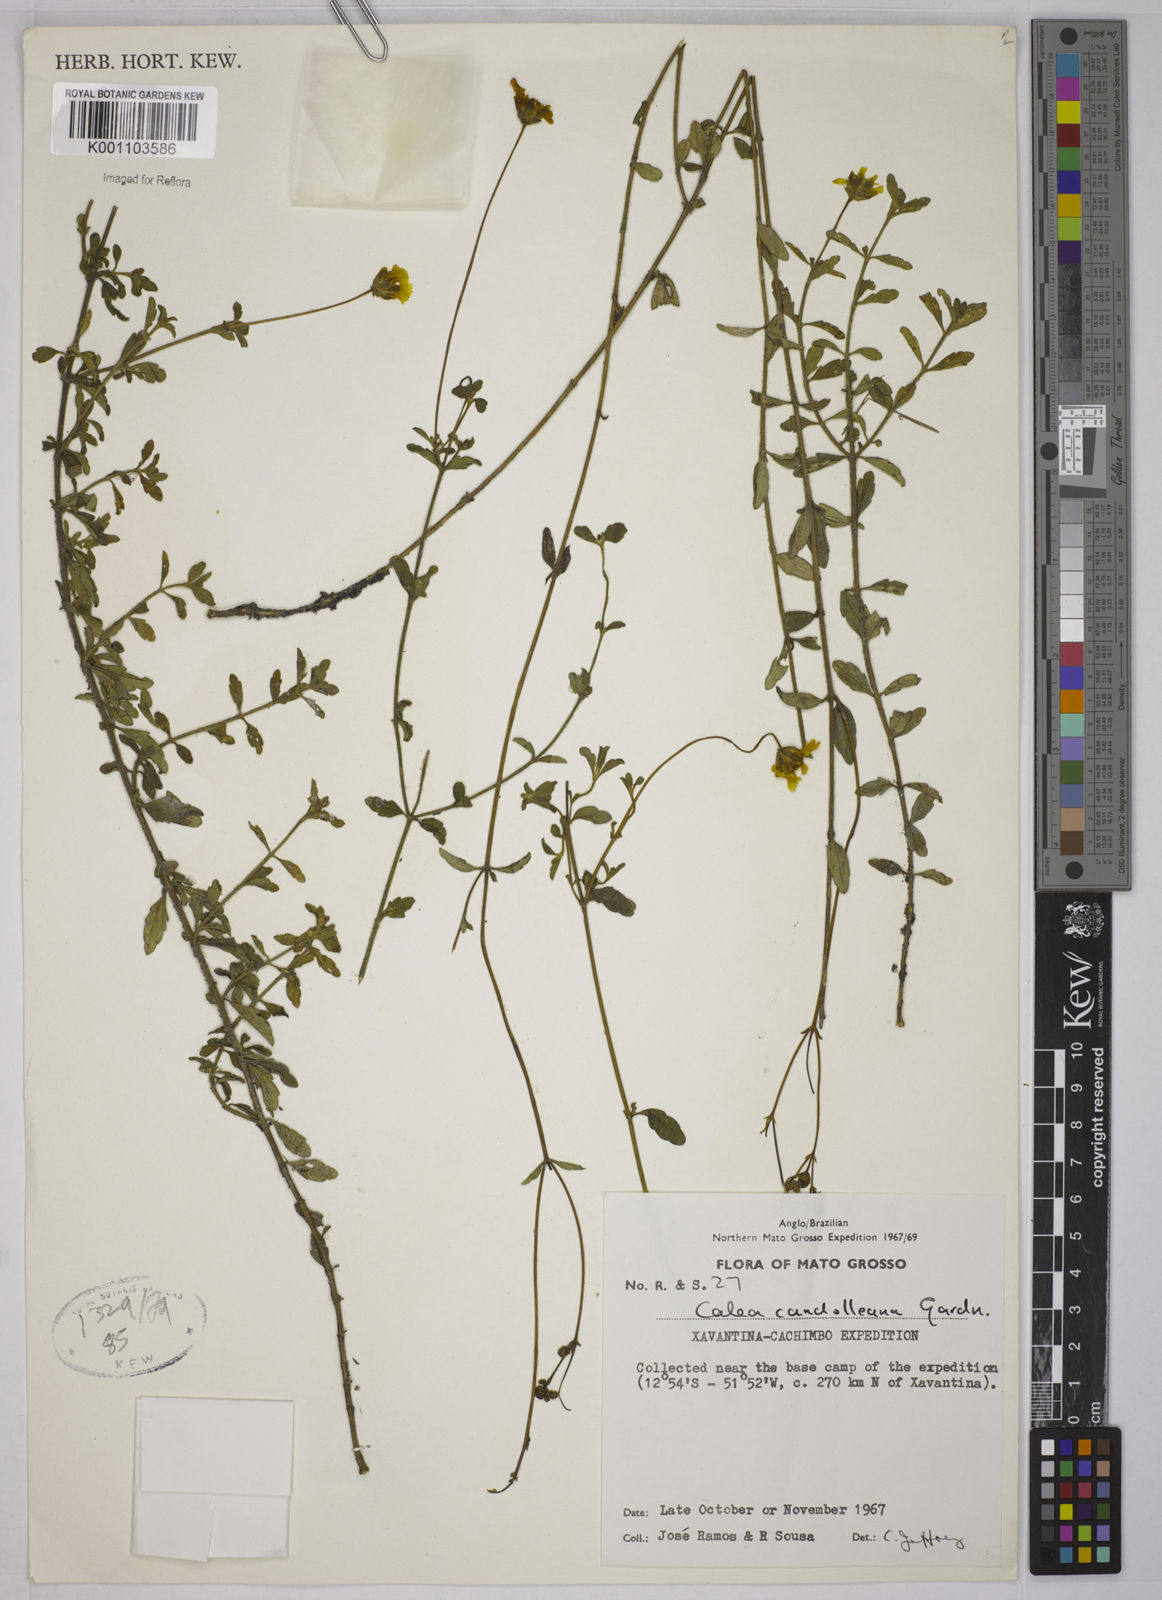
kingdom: Plantae
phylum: Tracheophyta
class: Magnoliopsida
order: Asterales
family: Asteraceae
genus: Calea
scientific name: Calea candolleana
